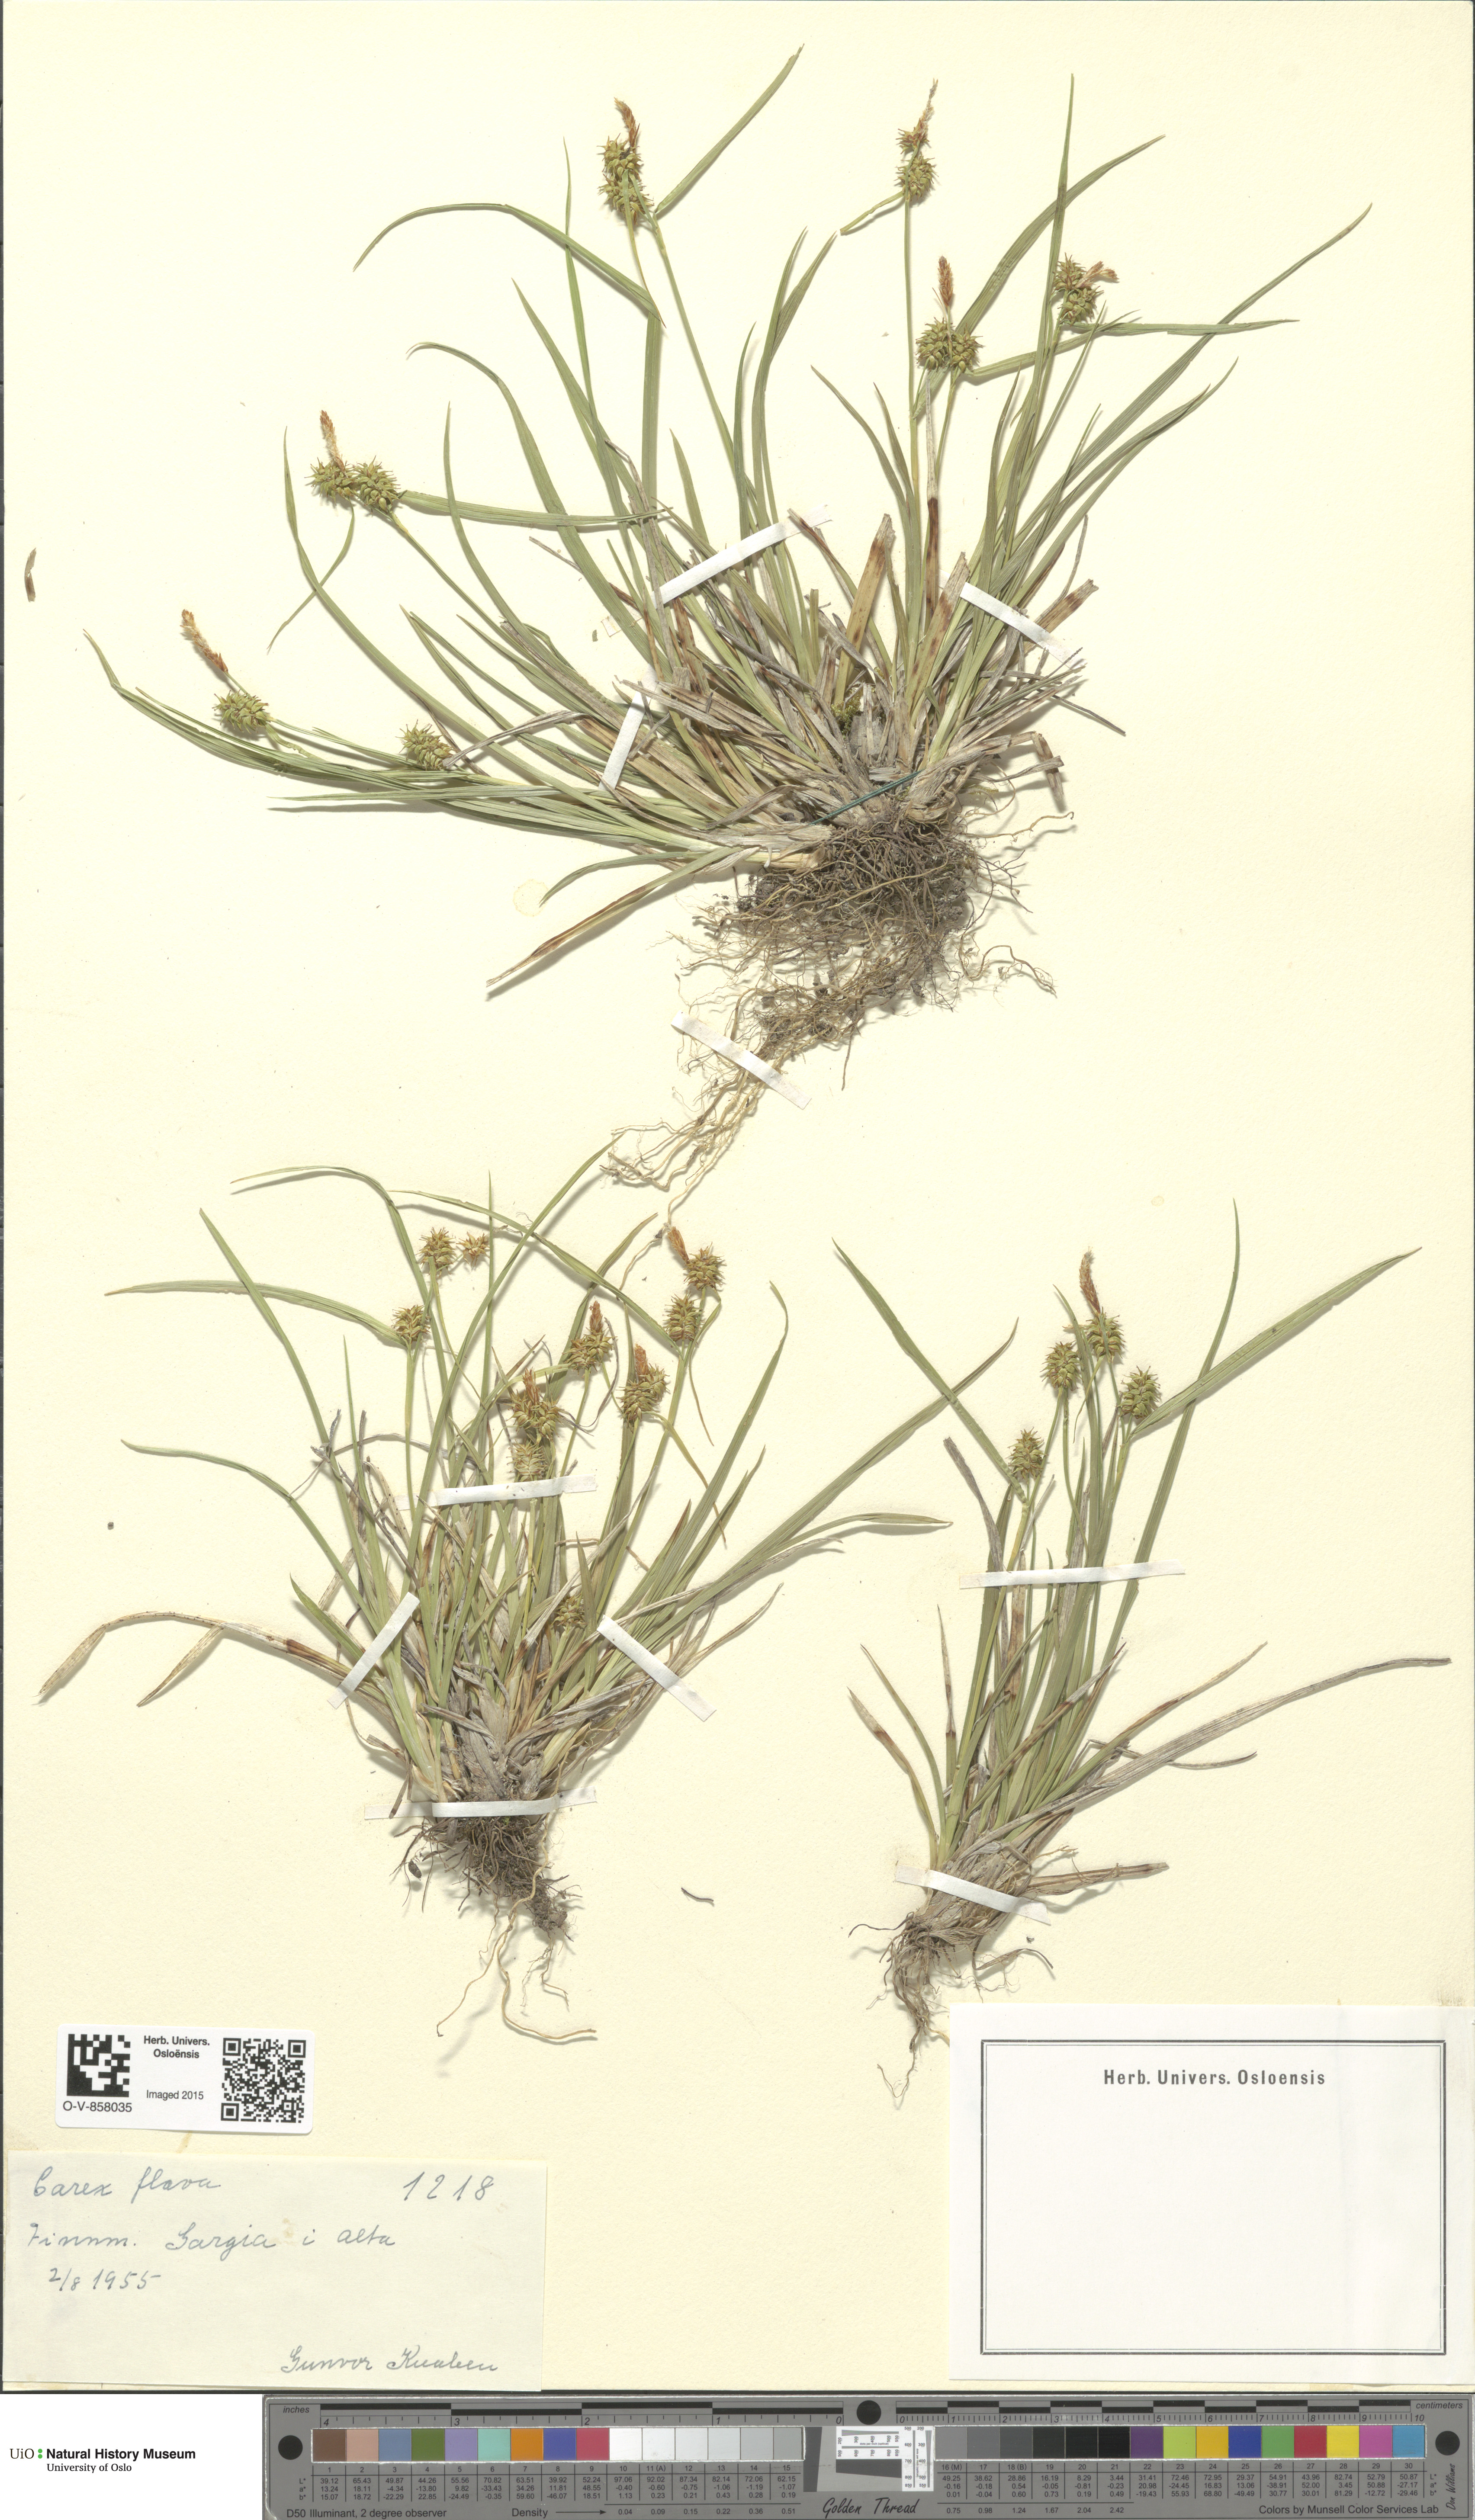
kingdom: Plantae
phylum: Tracheophyta
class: Liliopsida
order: Poales
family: Cyperaceae
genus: Carex
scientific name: Carex flava
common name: Large yellow-sedge
